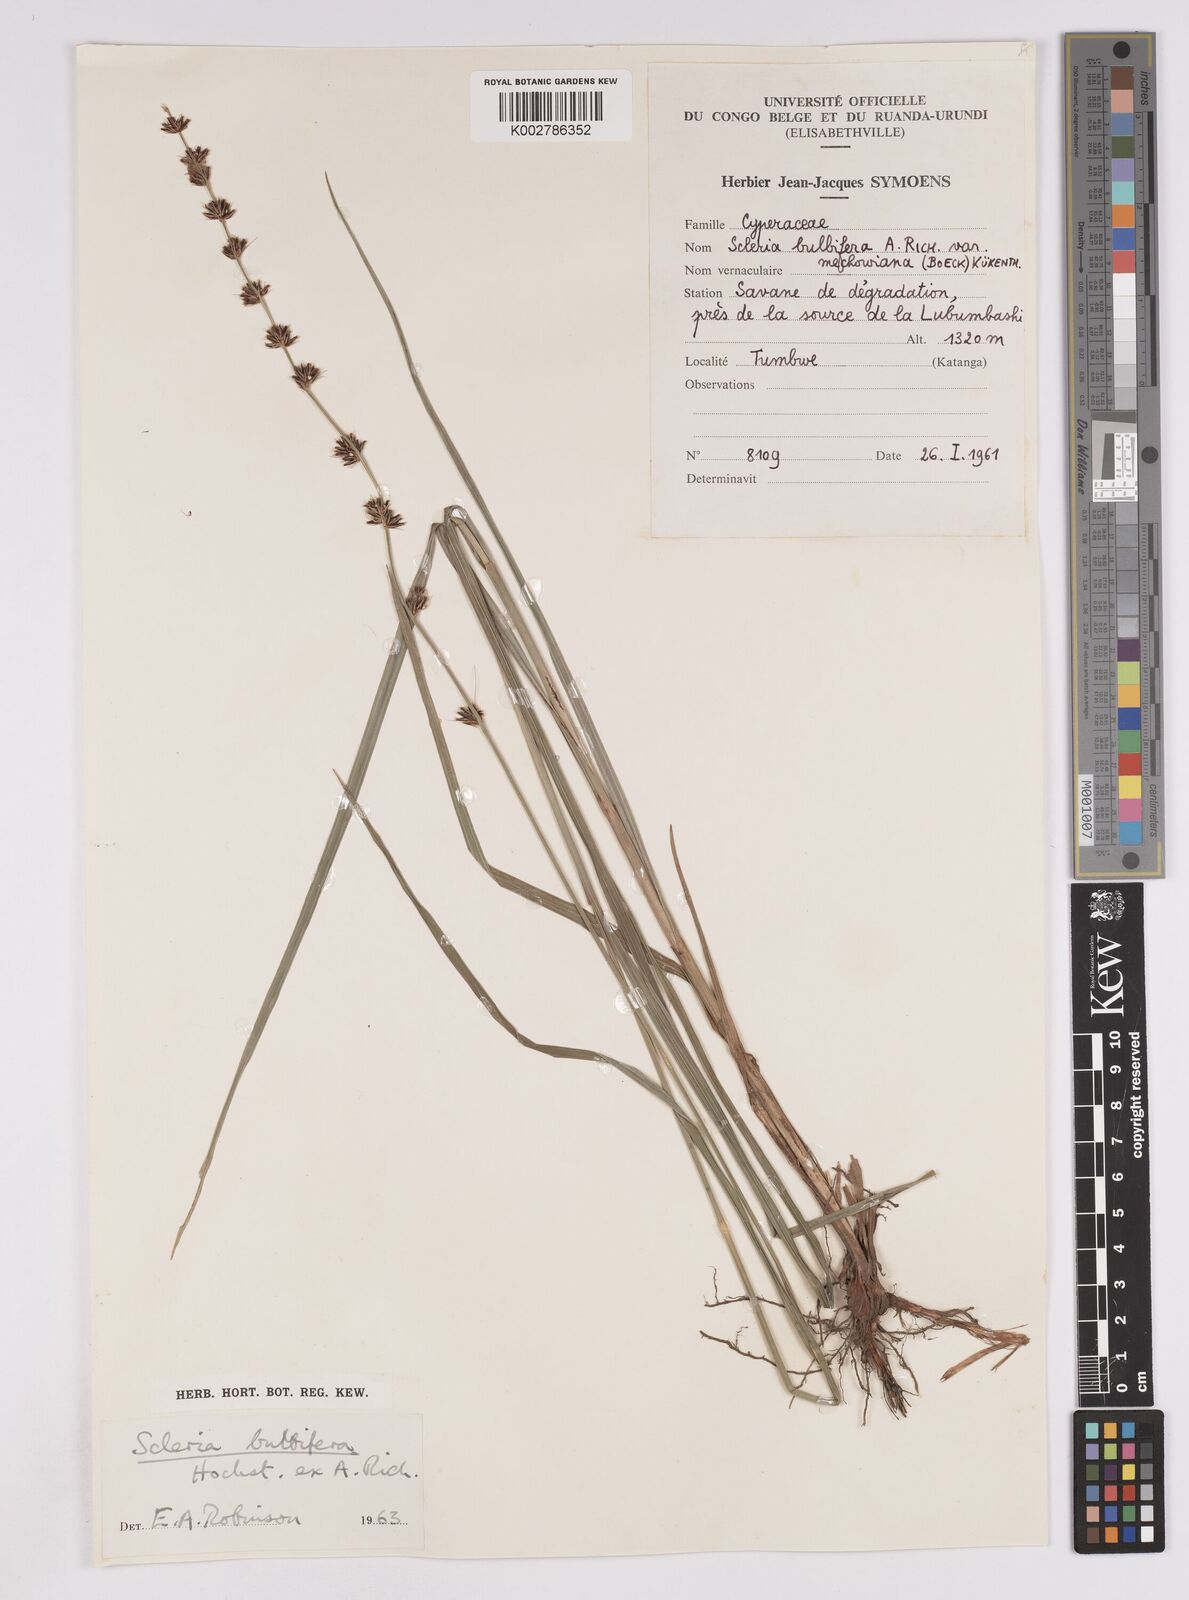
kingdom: Plantae
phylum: Tracheophyta
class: Liliopsida
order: Poales
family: Cyperaceae
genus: Scleria
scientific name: Scleria bulbifera
